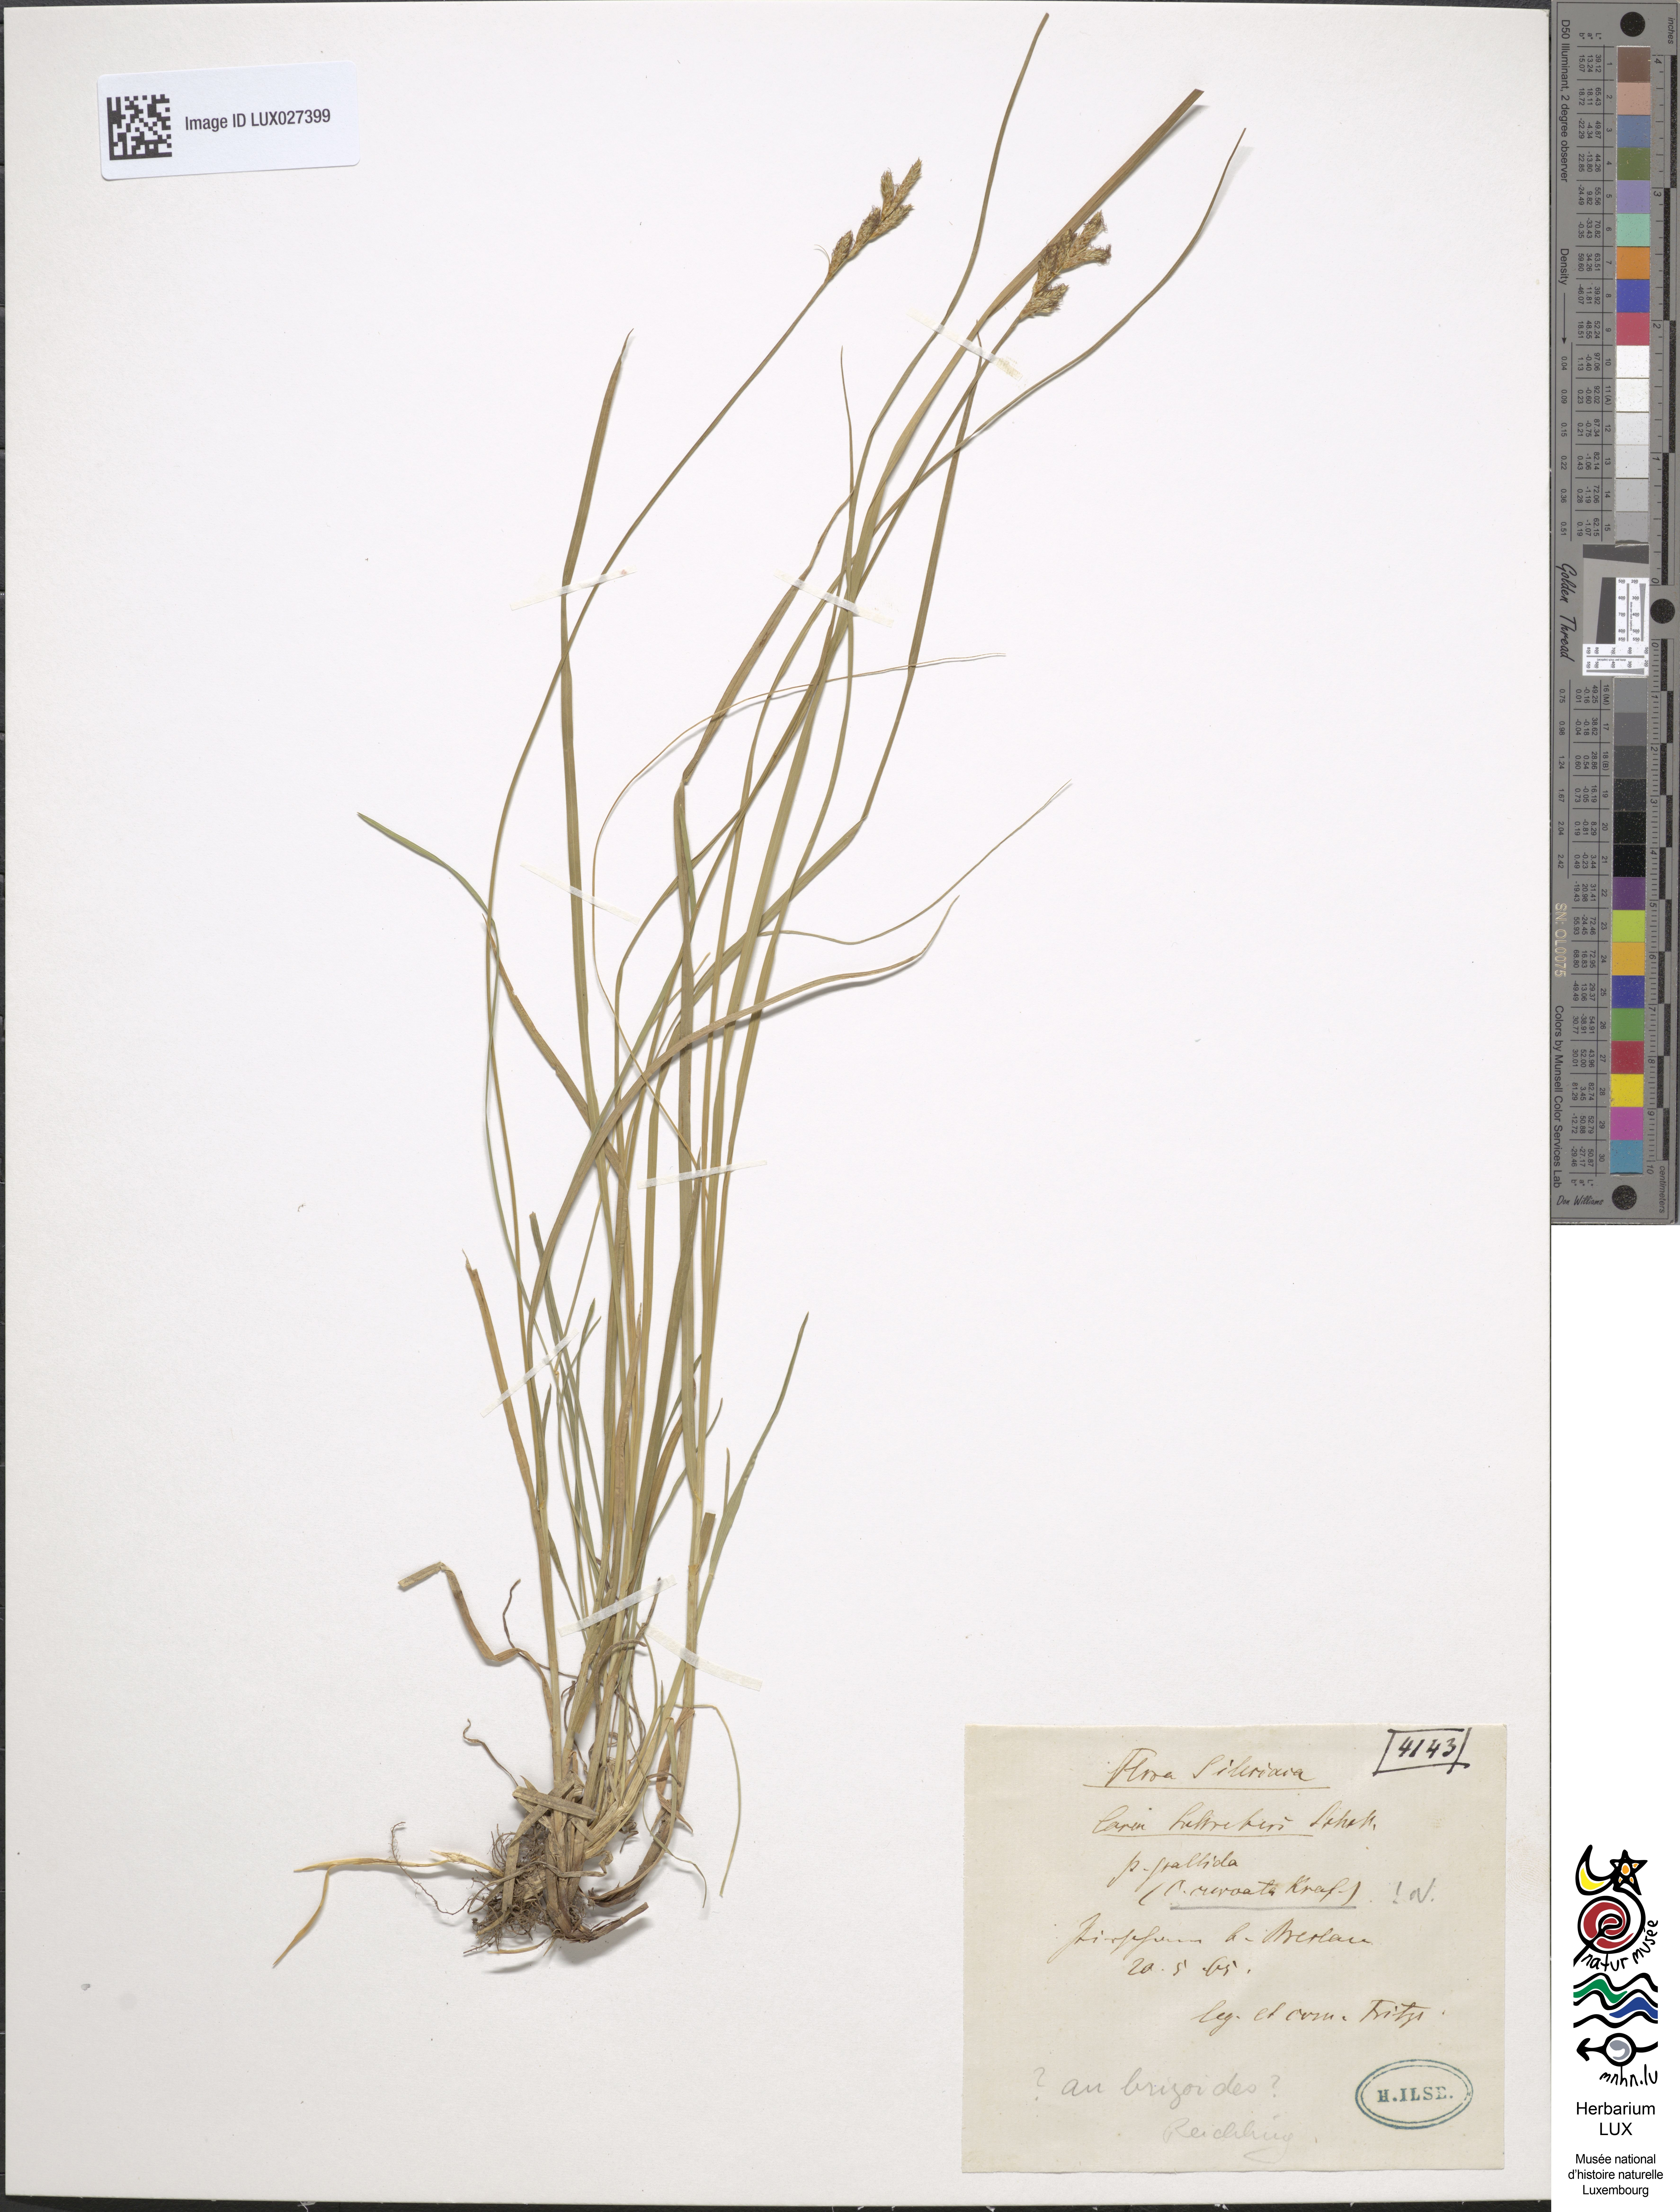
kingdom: Plantae
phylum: Tracheophyta
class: Liliopsida
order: Poales
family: Cyperaceae
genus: Carex
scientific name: Carex praecox
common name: Early sedge
